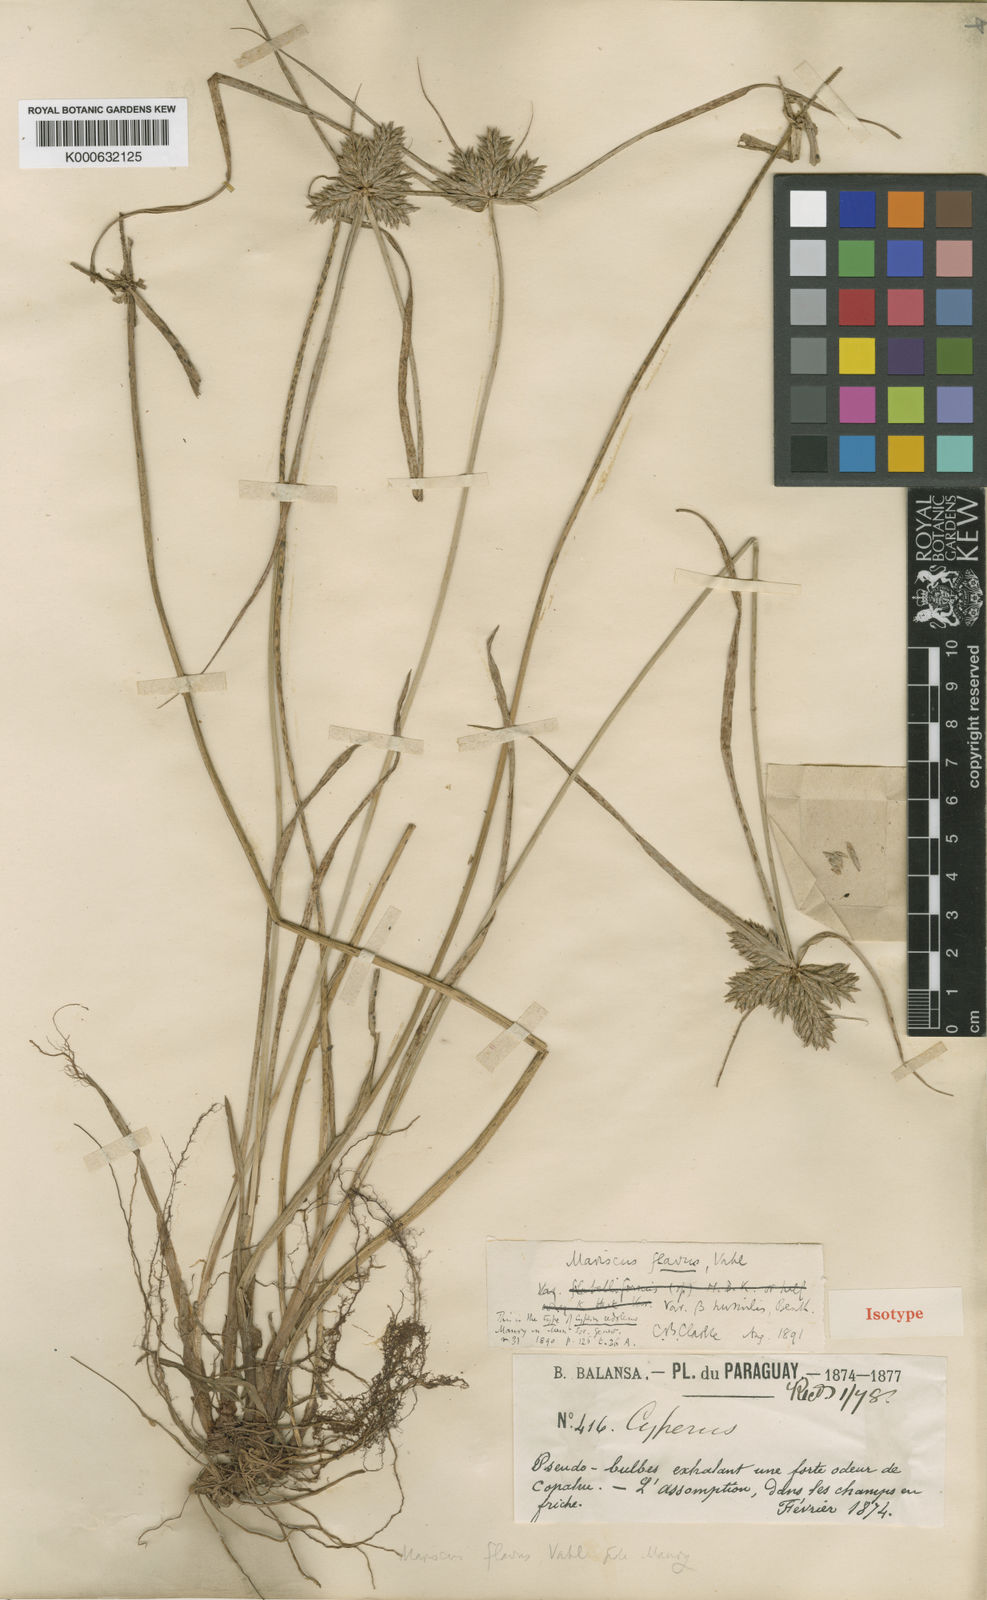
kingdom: Plantae
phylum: Tracheophyta
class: Liliopsida
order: Poales
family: Cyperaceae
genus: Cyperus
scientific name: Cyperus aggregatus
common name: Inflatedscale flatsedge
